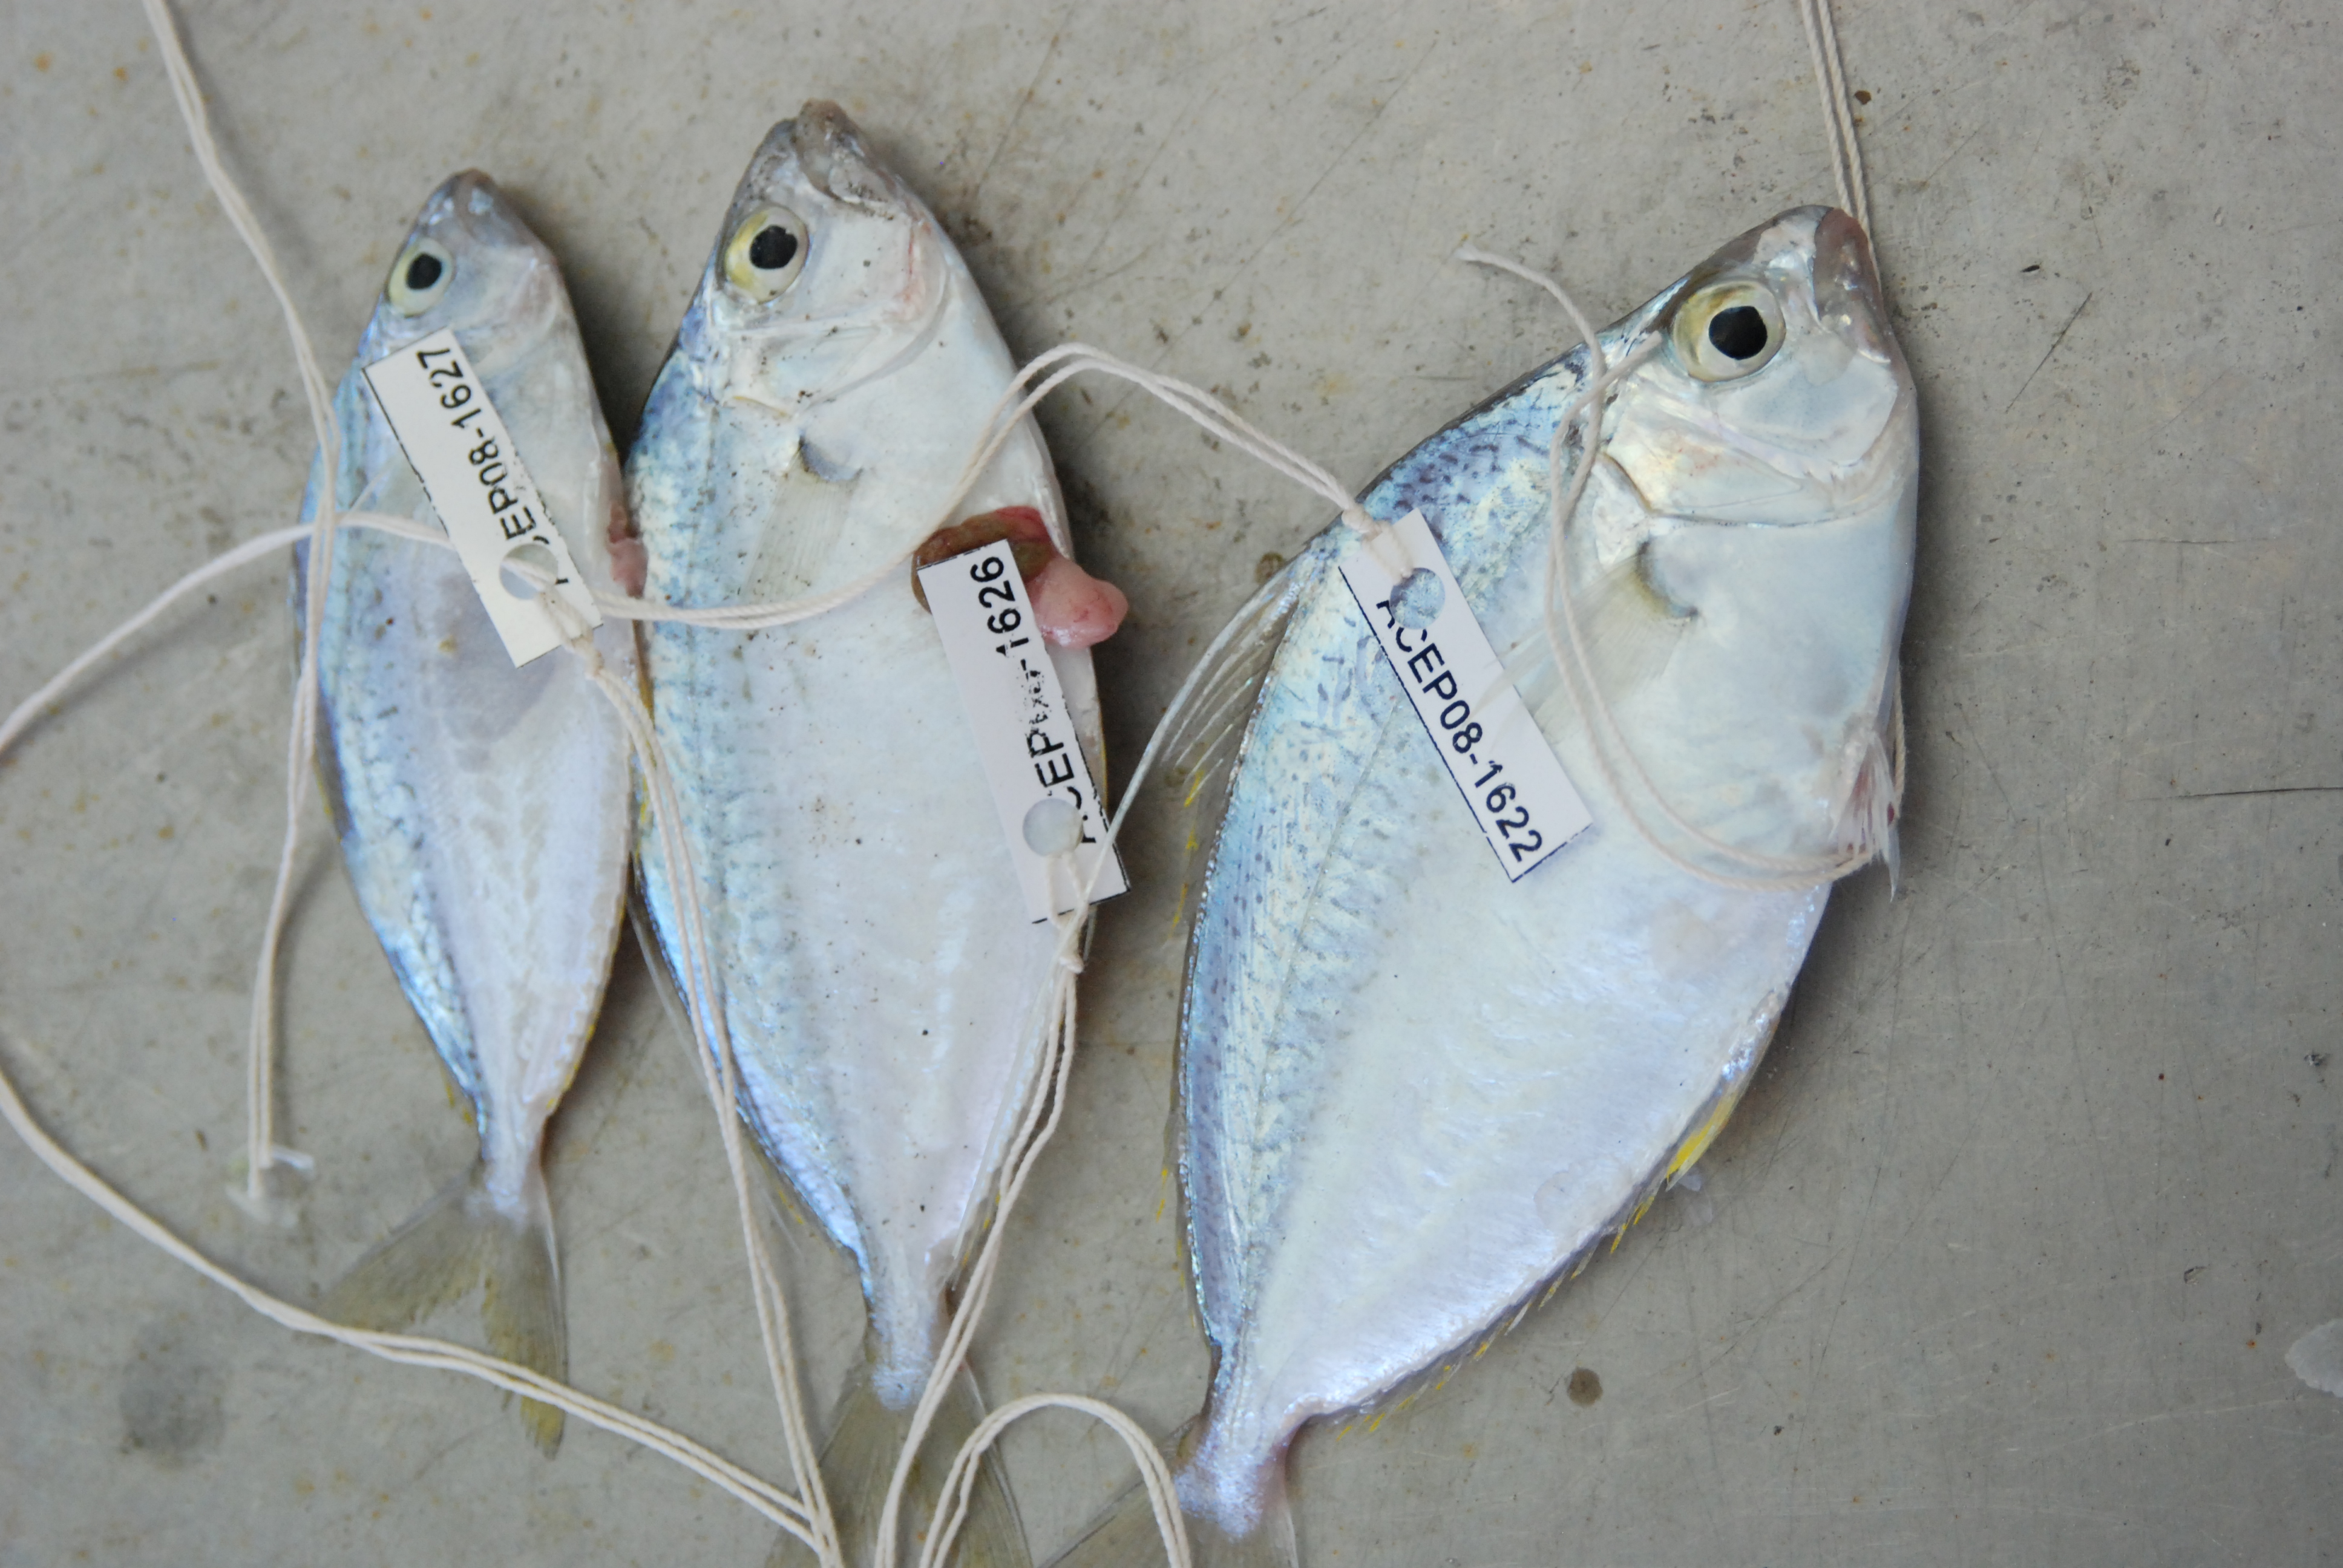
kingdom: Animalia
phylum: Chordata
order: Perciformes
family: Leiognathidae
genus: Equulites
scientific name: Equulites leuciscus
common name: Whipfin ponyfish
